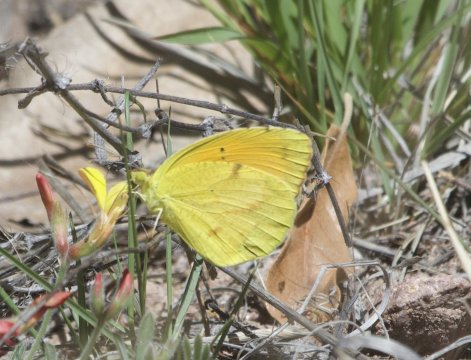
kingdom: Animalia
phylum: Arthropoda
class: Insecta
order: Lepidoptera
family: Pieridae
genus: Abaeis
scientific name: Abaeis nicippe
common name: Sleepy Orange
